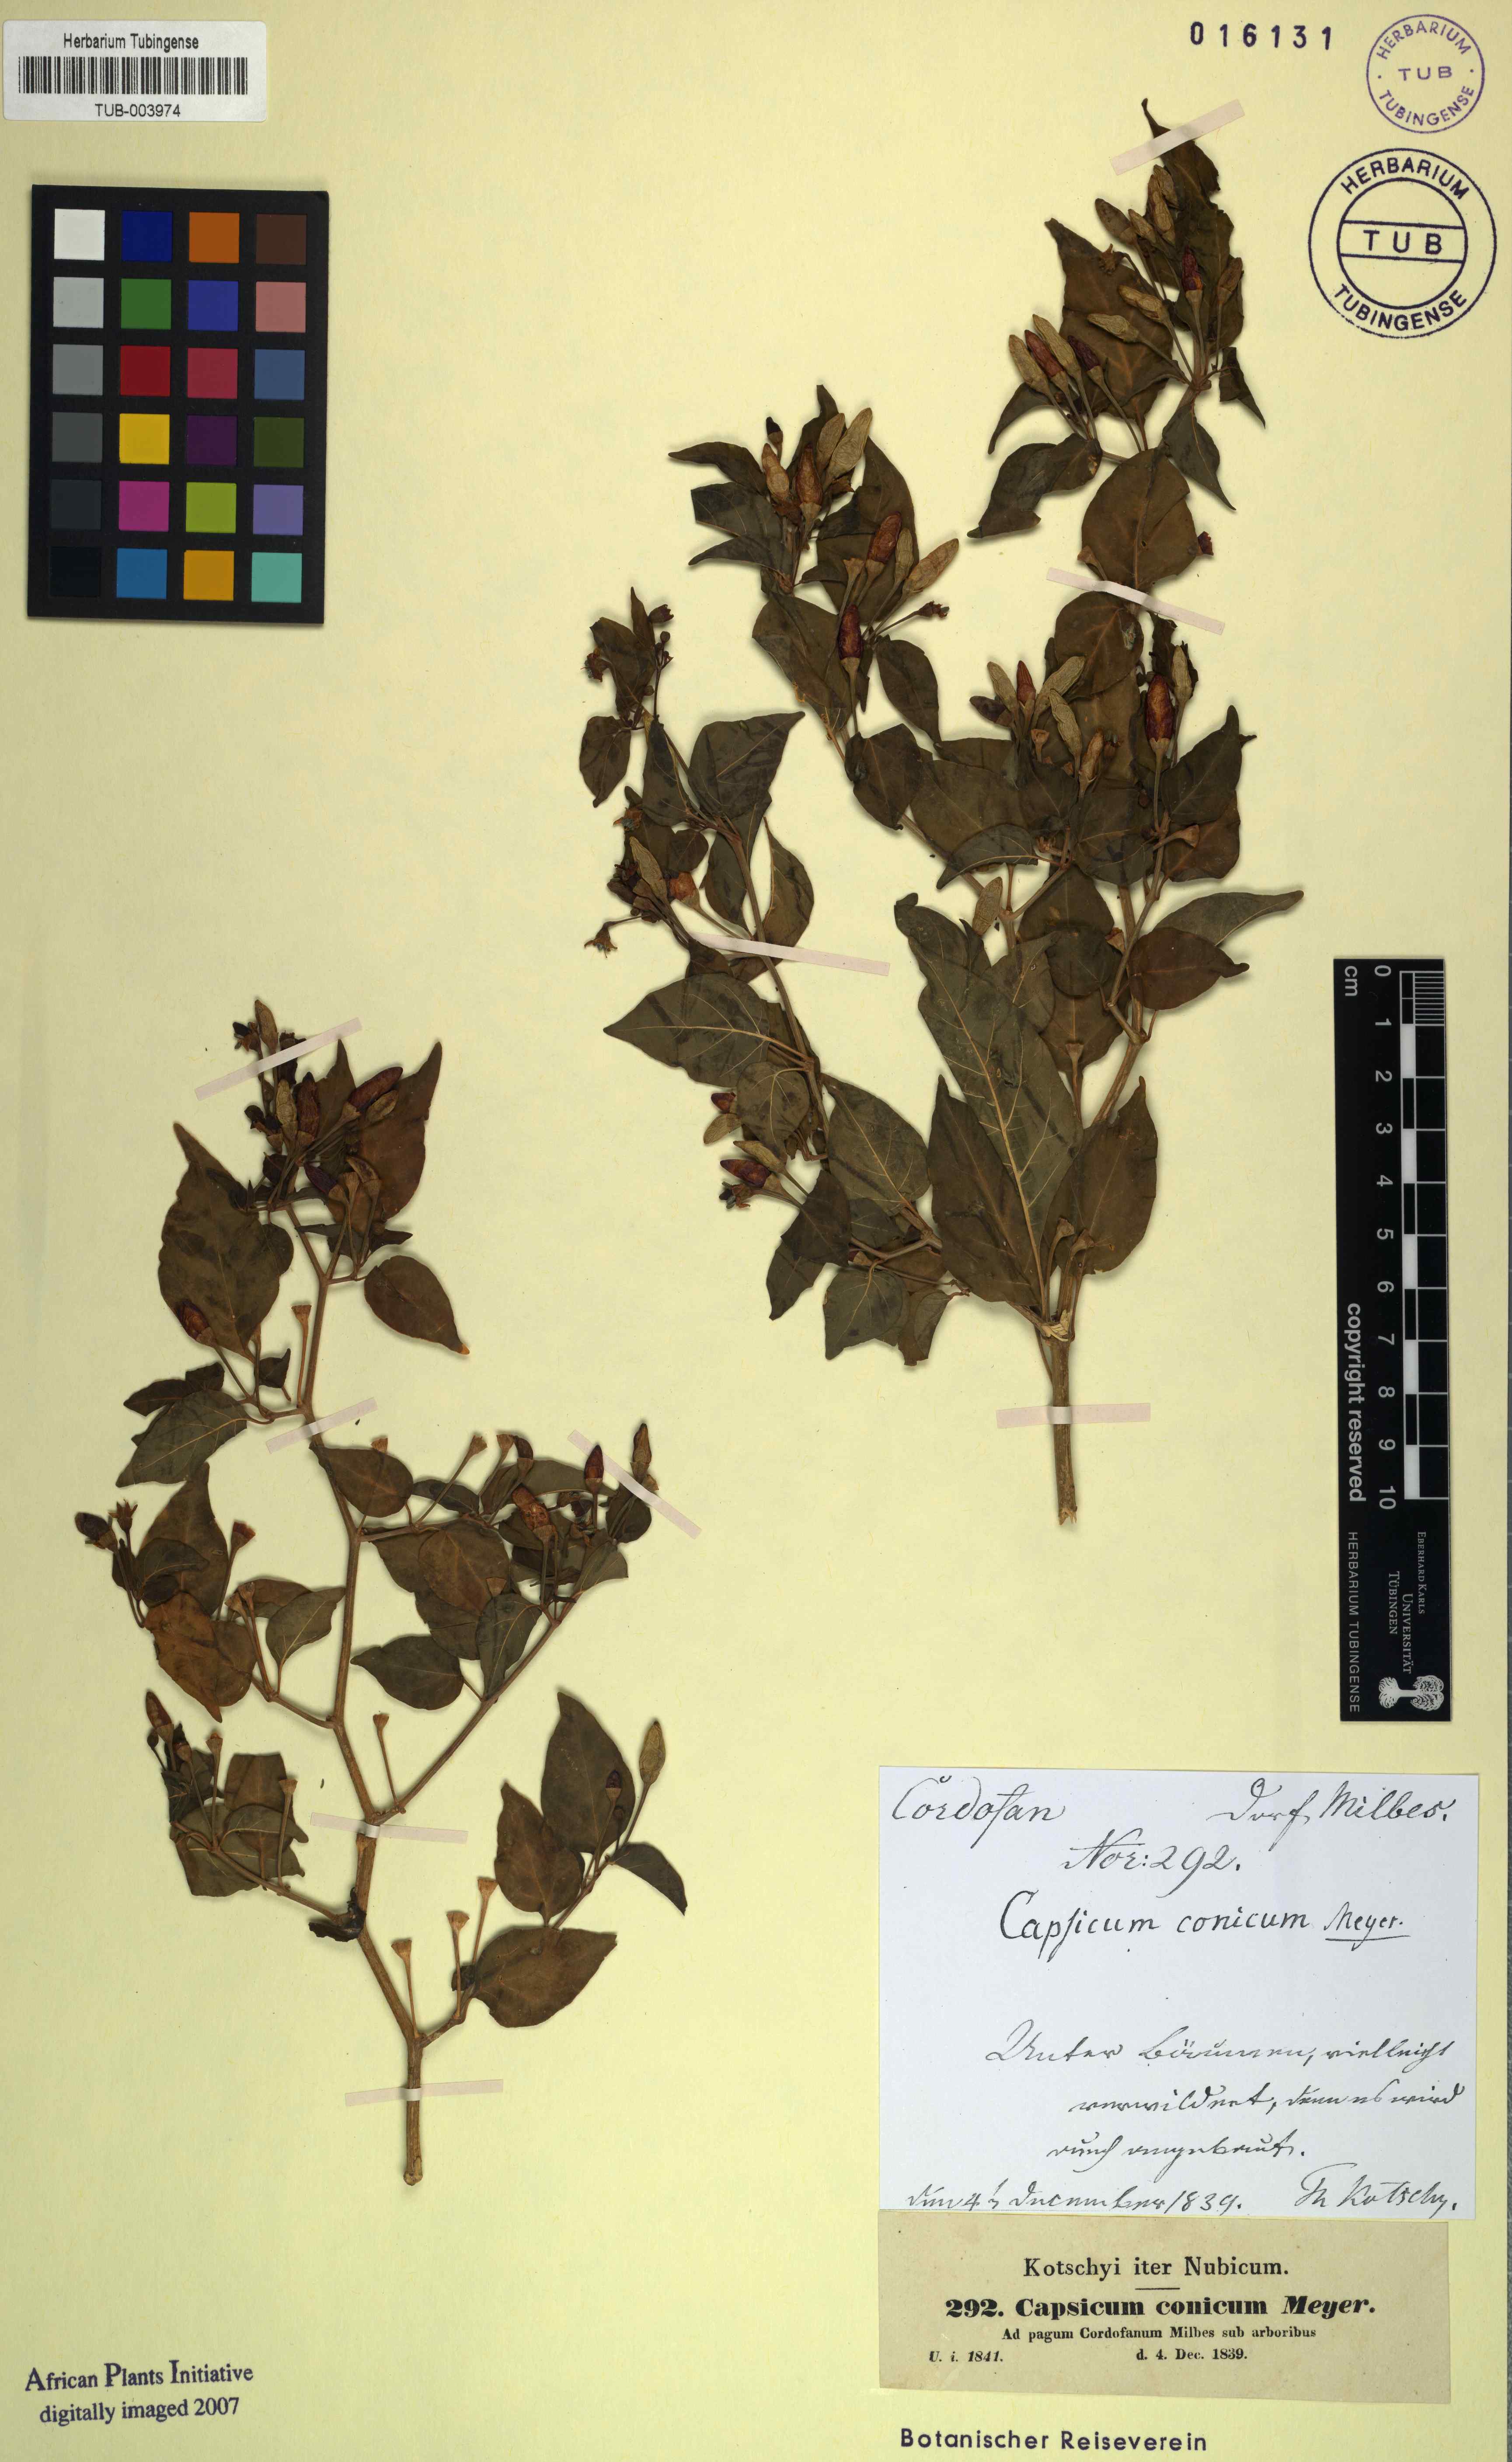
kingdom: Plantae
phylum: Tracheophyta
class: Magnoliopsida
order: Solanales
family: Solanaceae
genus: Capsicum
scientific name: Capsicum frutescens
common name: Bird pepper
